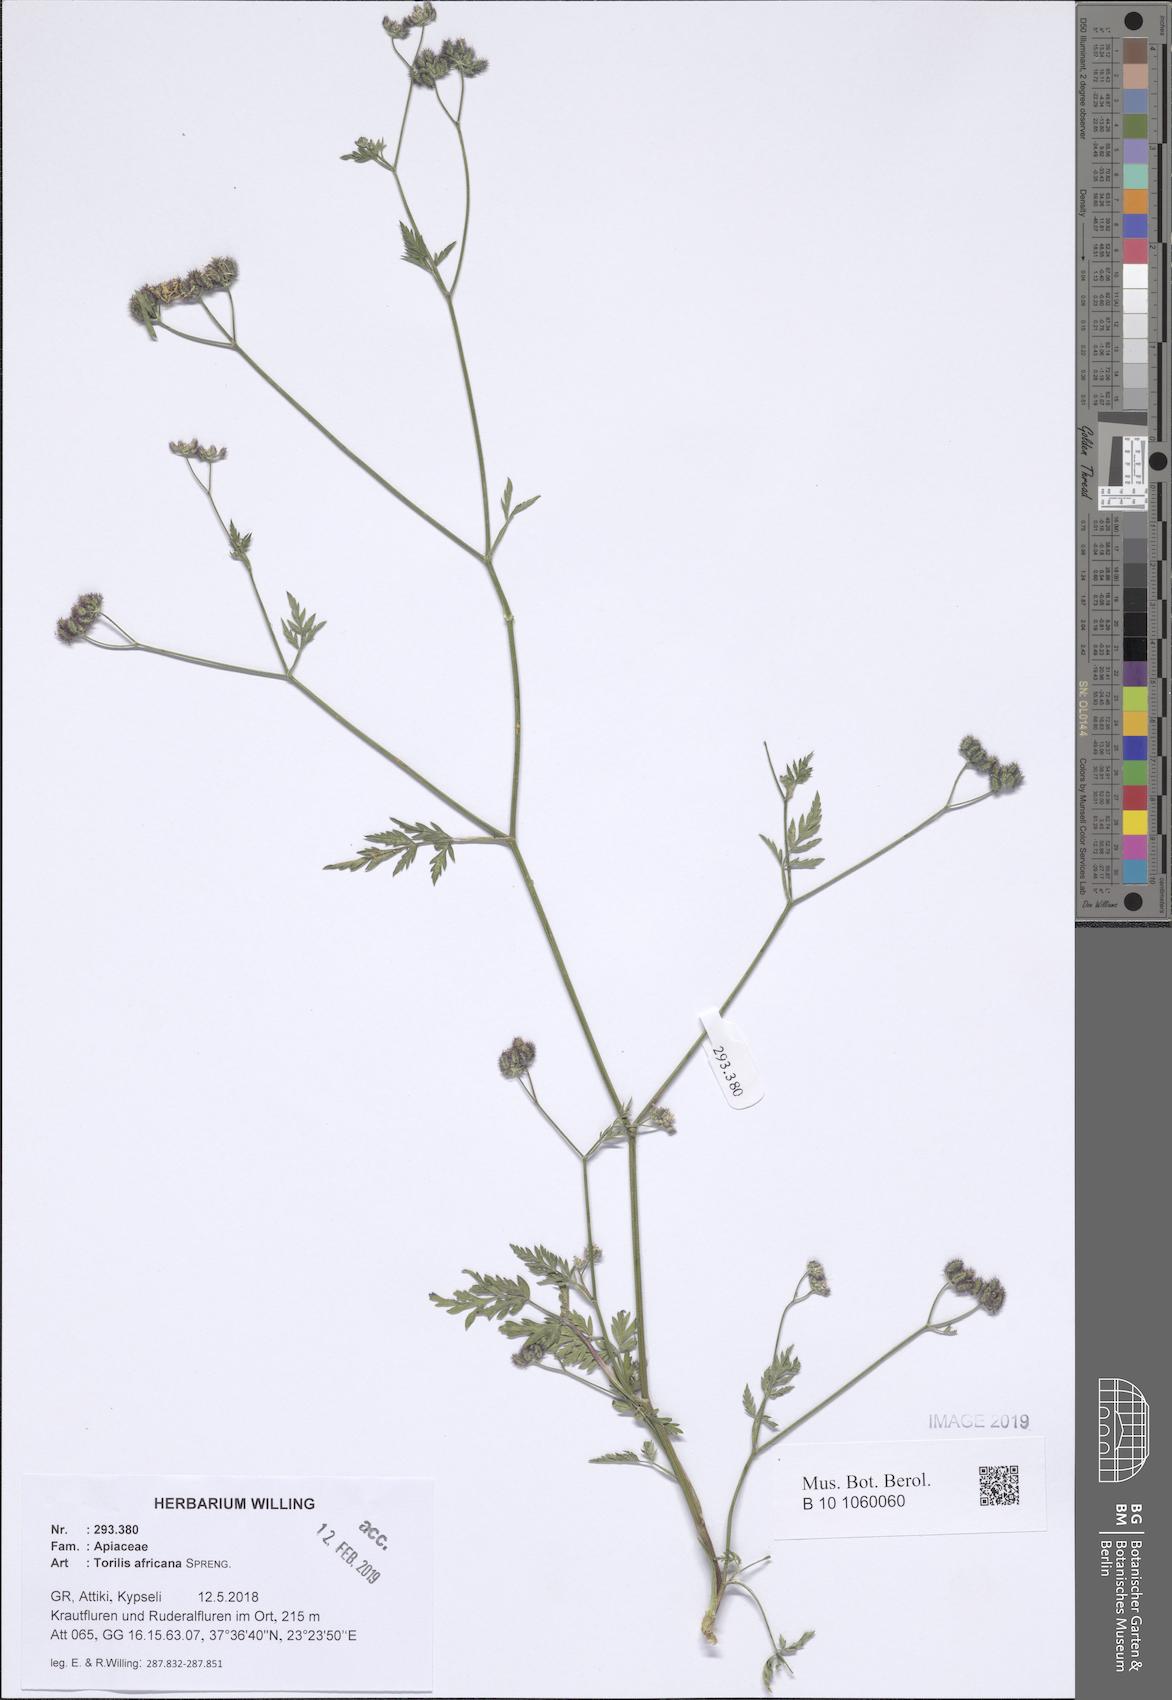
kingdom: Plantae
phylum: Tracheophyta
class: Magnoliopsida
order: Apiales
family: Apiaceae
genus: Torilis
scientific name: Torilis africana
